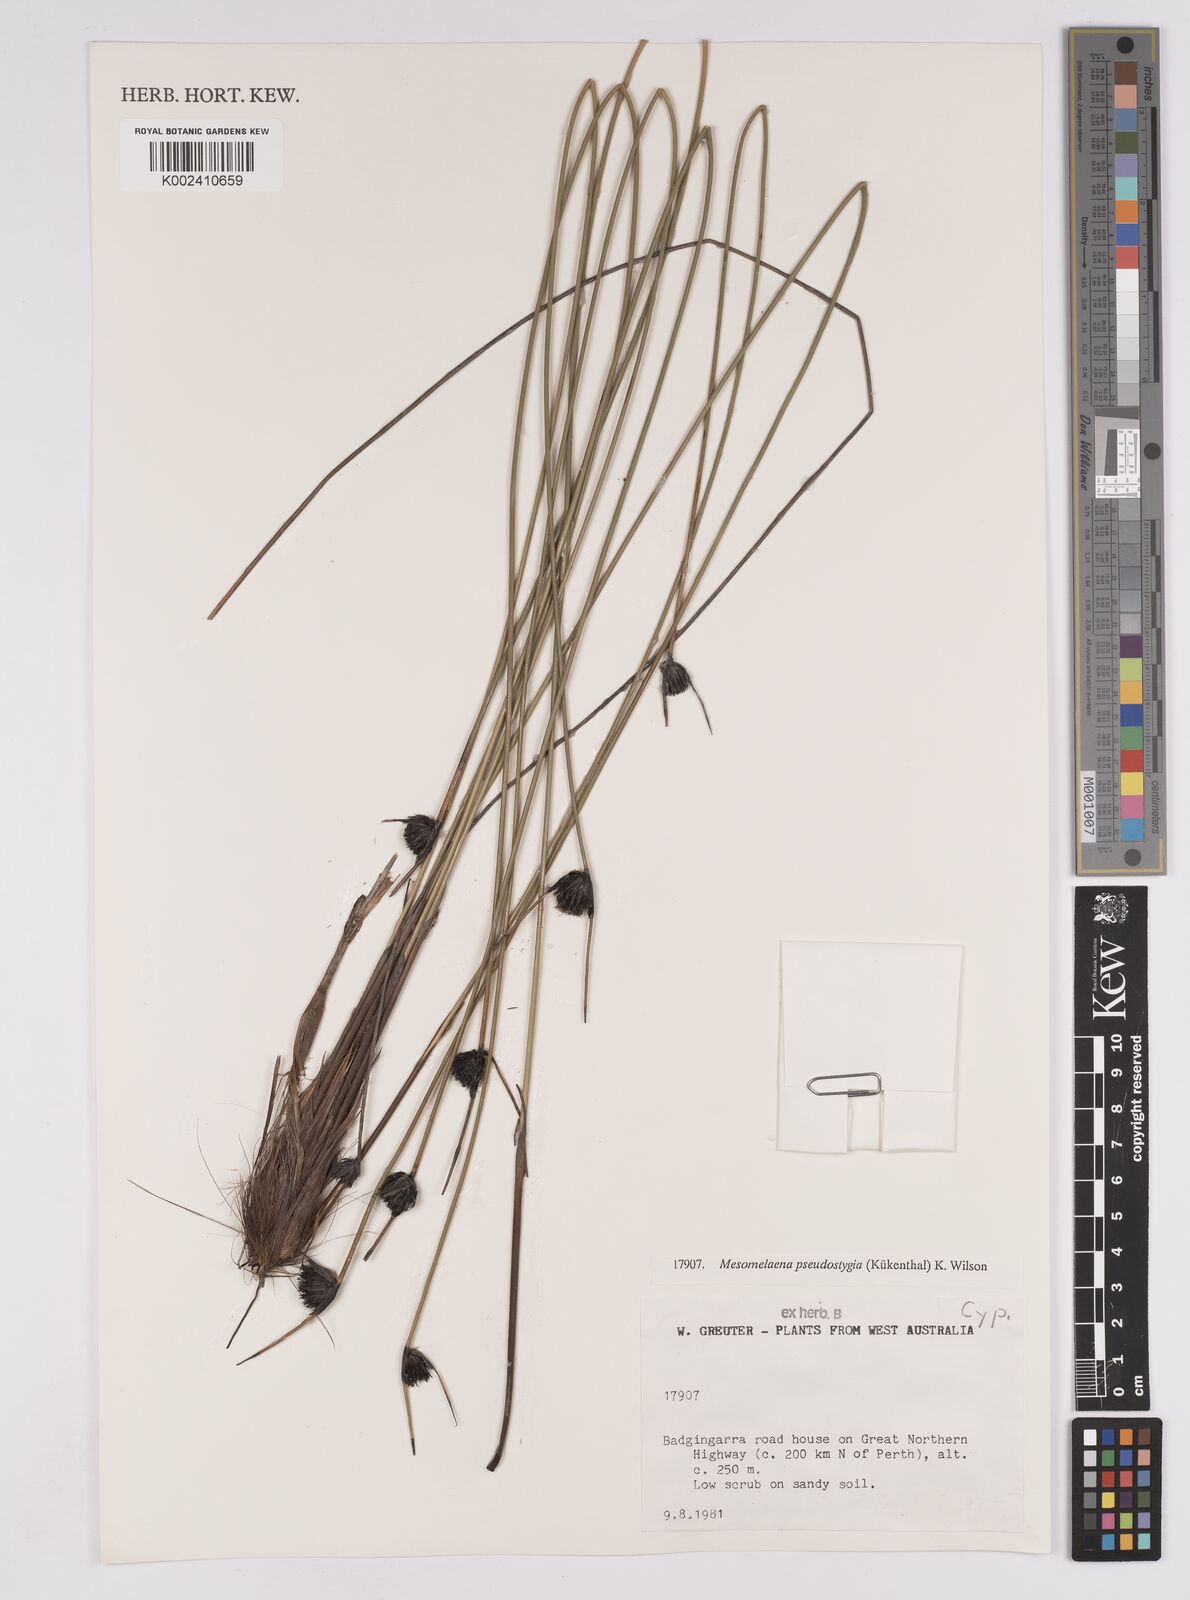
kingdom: Plantae
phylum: Tracheophyta
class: Liliopsida
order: Poales
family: Cyperaceae
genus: Mesomelaena
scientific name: Mesomelaena pseudostygia
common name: Semaphore sedge
